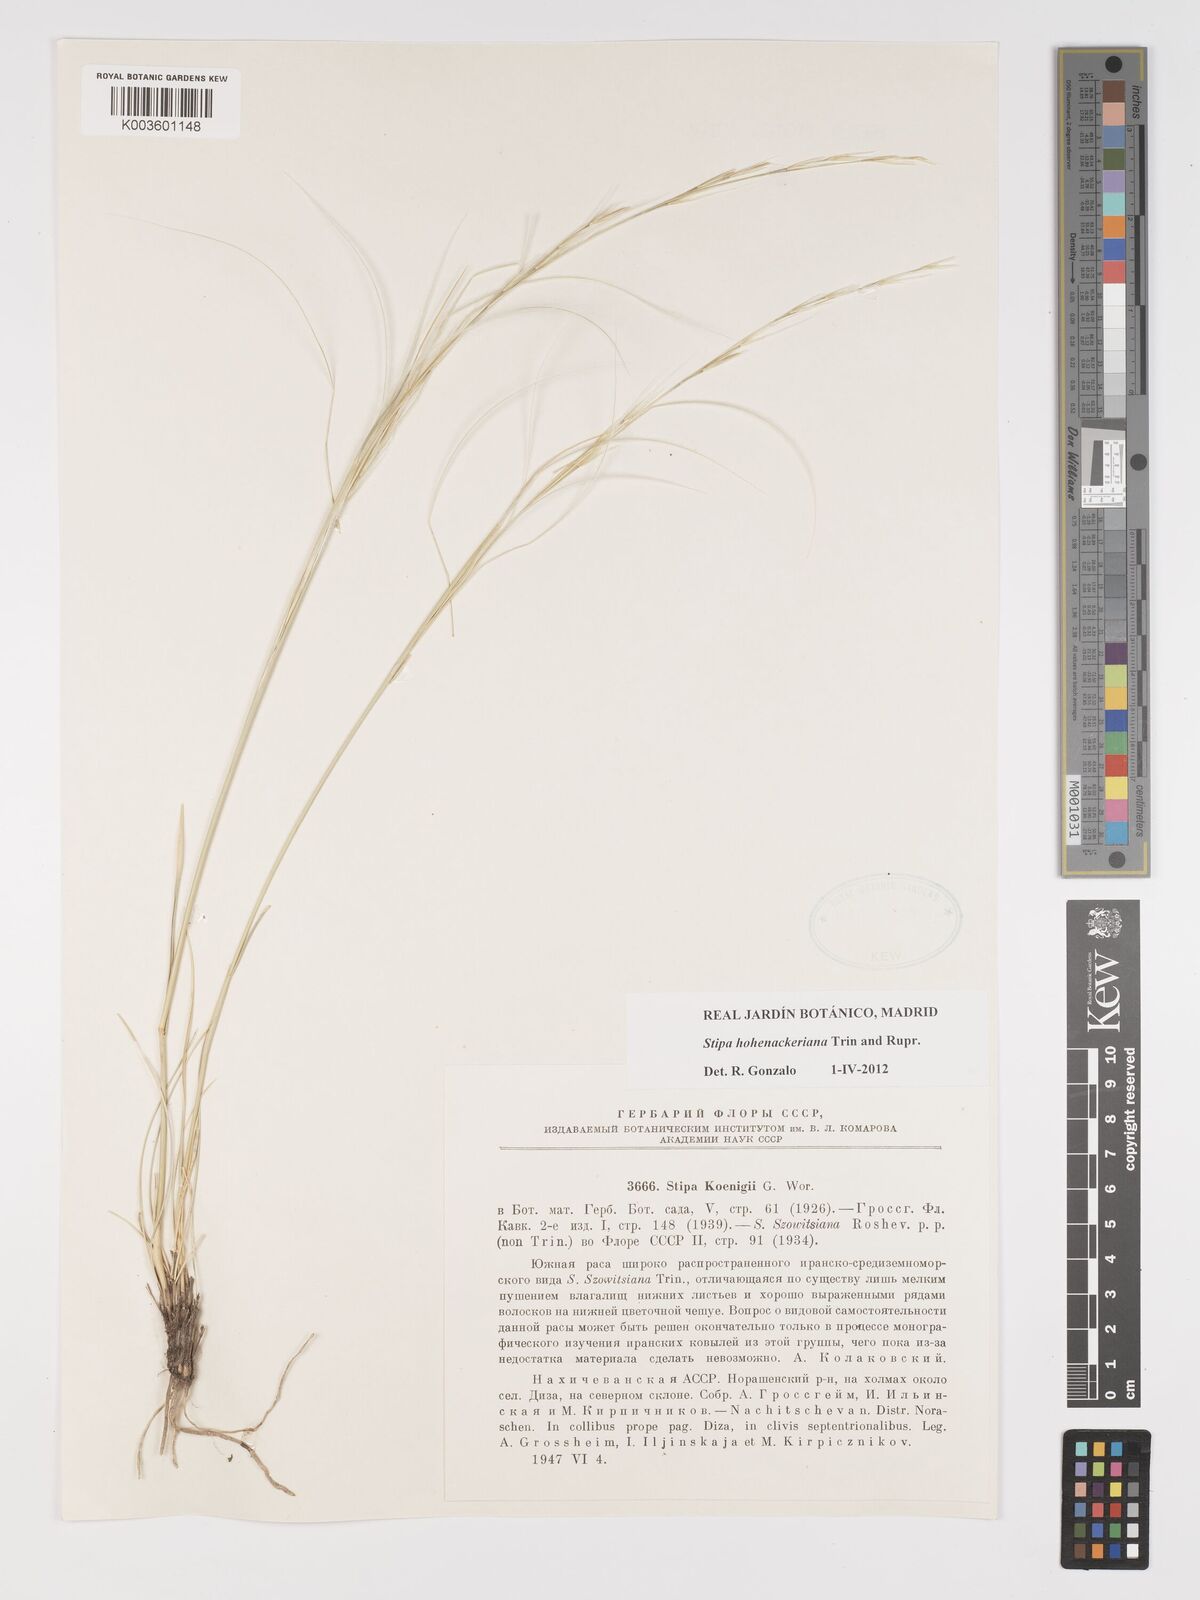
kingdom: Plantae
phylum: Tracheophyta
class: Liliopsida
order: Poales
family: Poaceae
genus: Stipa
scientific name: Stipa hohenackeriana
